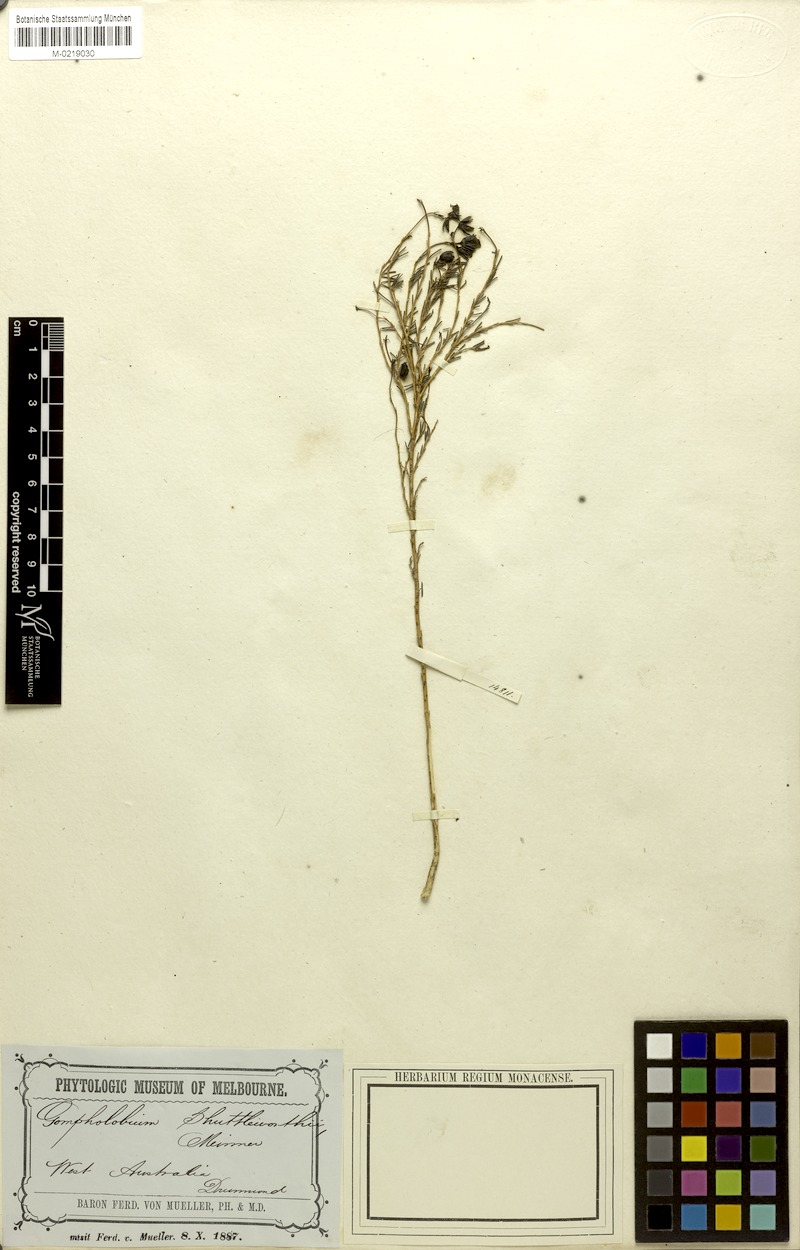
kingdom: Plantae
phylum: Tracheophyta
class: Magnoliopsida
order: Fabales
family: Fabaceae
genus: Gompholobium
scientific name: Gompholobium shuttleworthii
